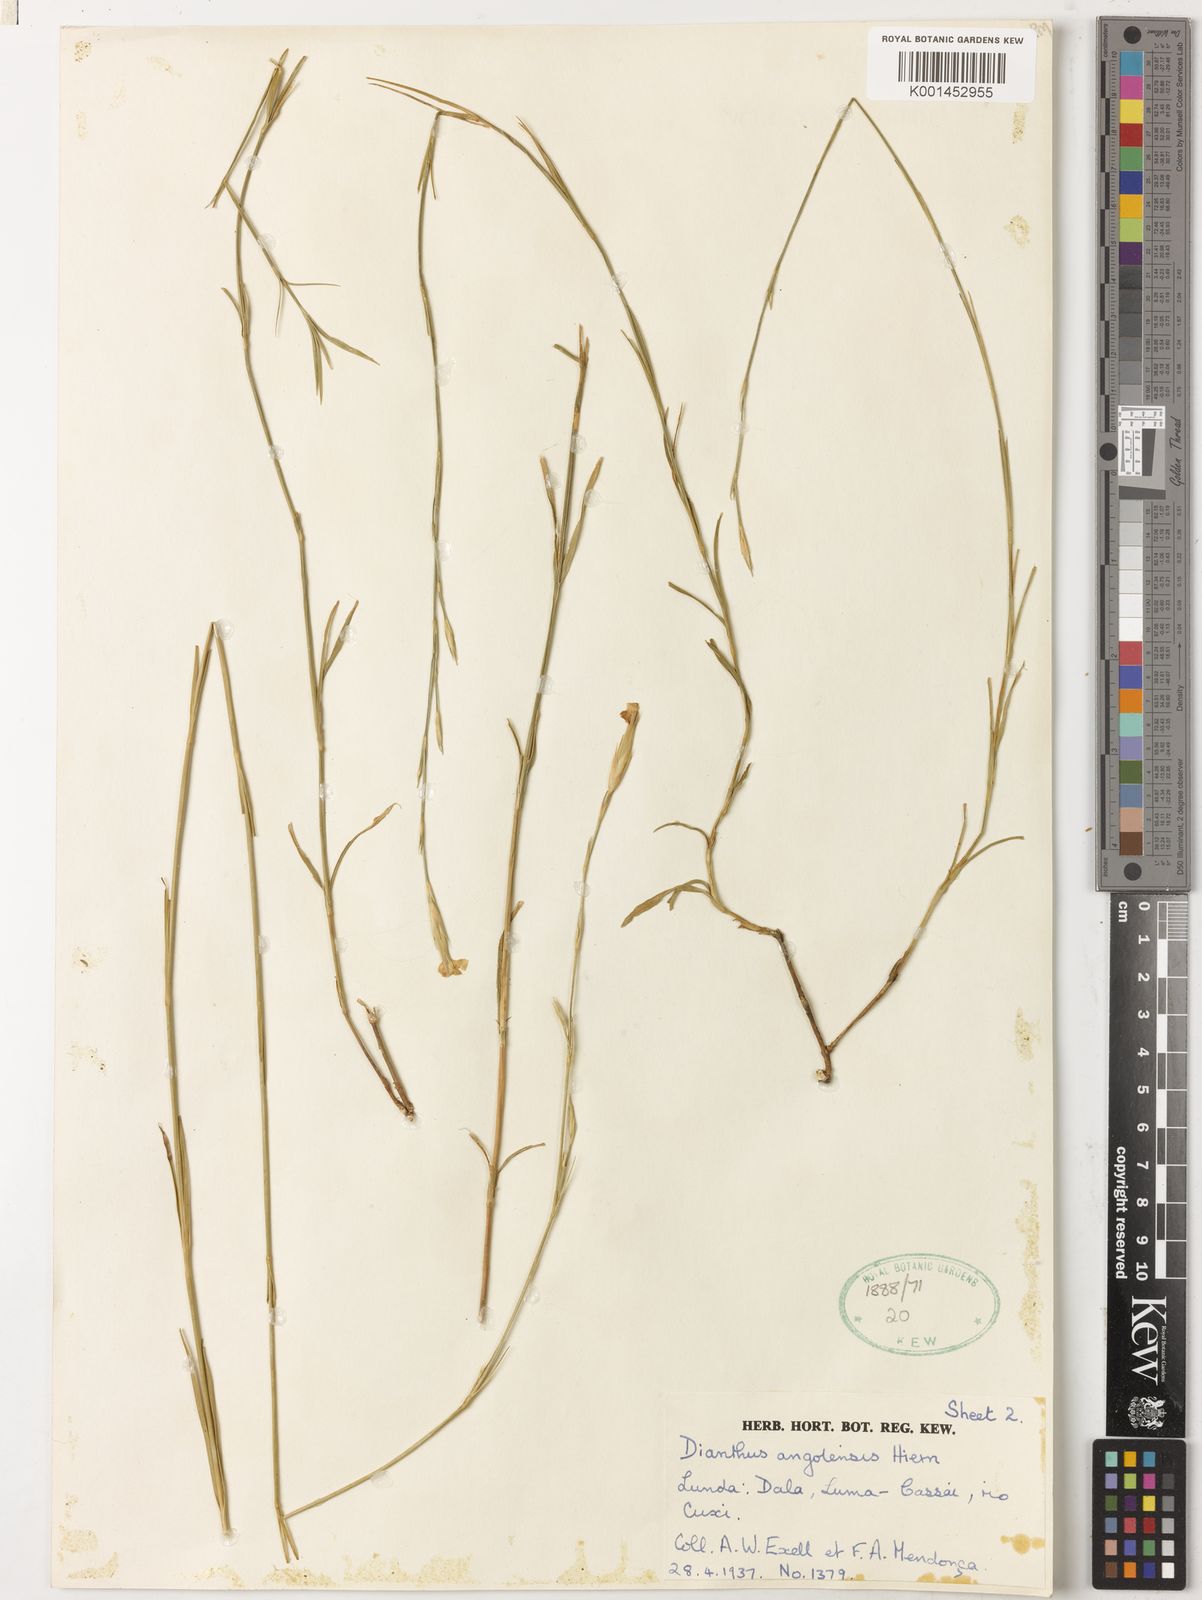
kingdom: Plantae
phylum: Tracheophyta
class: Magnoliopsida
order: Caryophyllales
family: Caryophyllaceae
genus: Dianthus
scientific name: Dianthus angolensis
